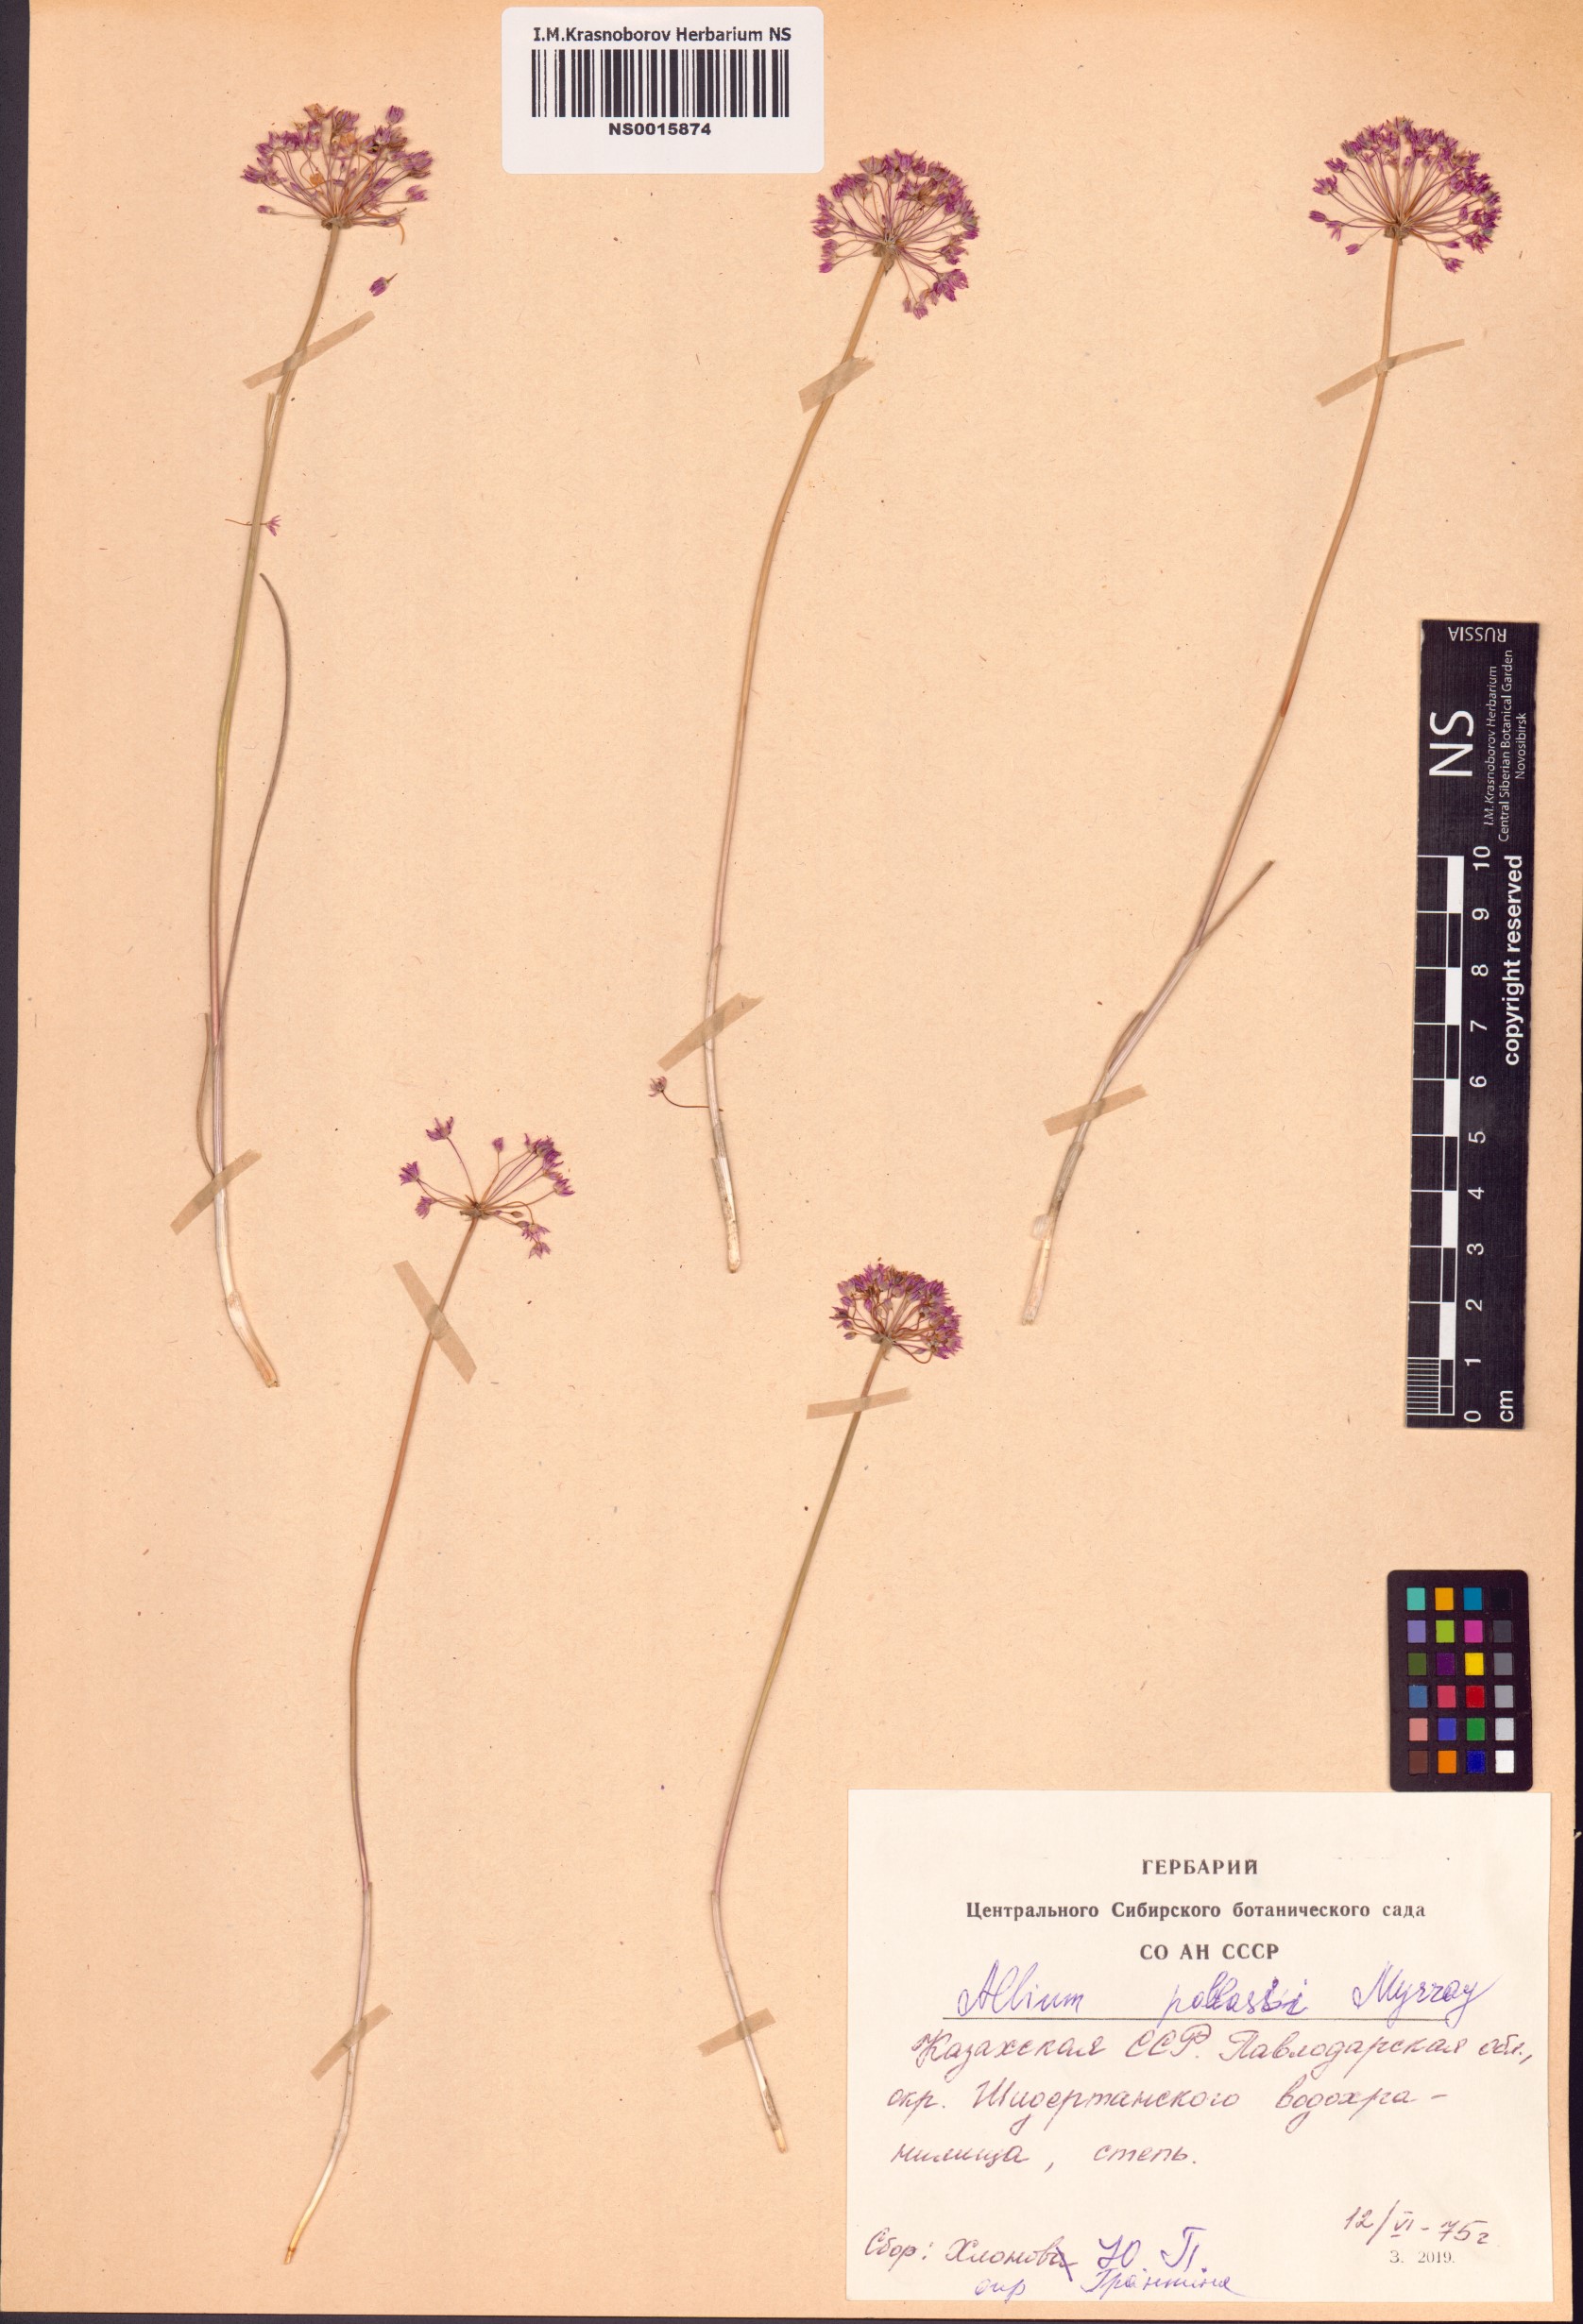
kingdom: Plantae
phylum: Tracheophyta
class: Liliopsida
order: Asparagales
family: Amaryllidaceae
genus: Allium
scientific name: Allium pallasii
